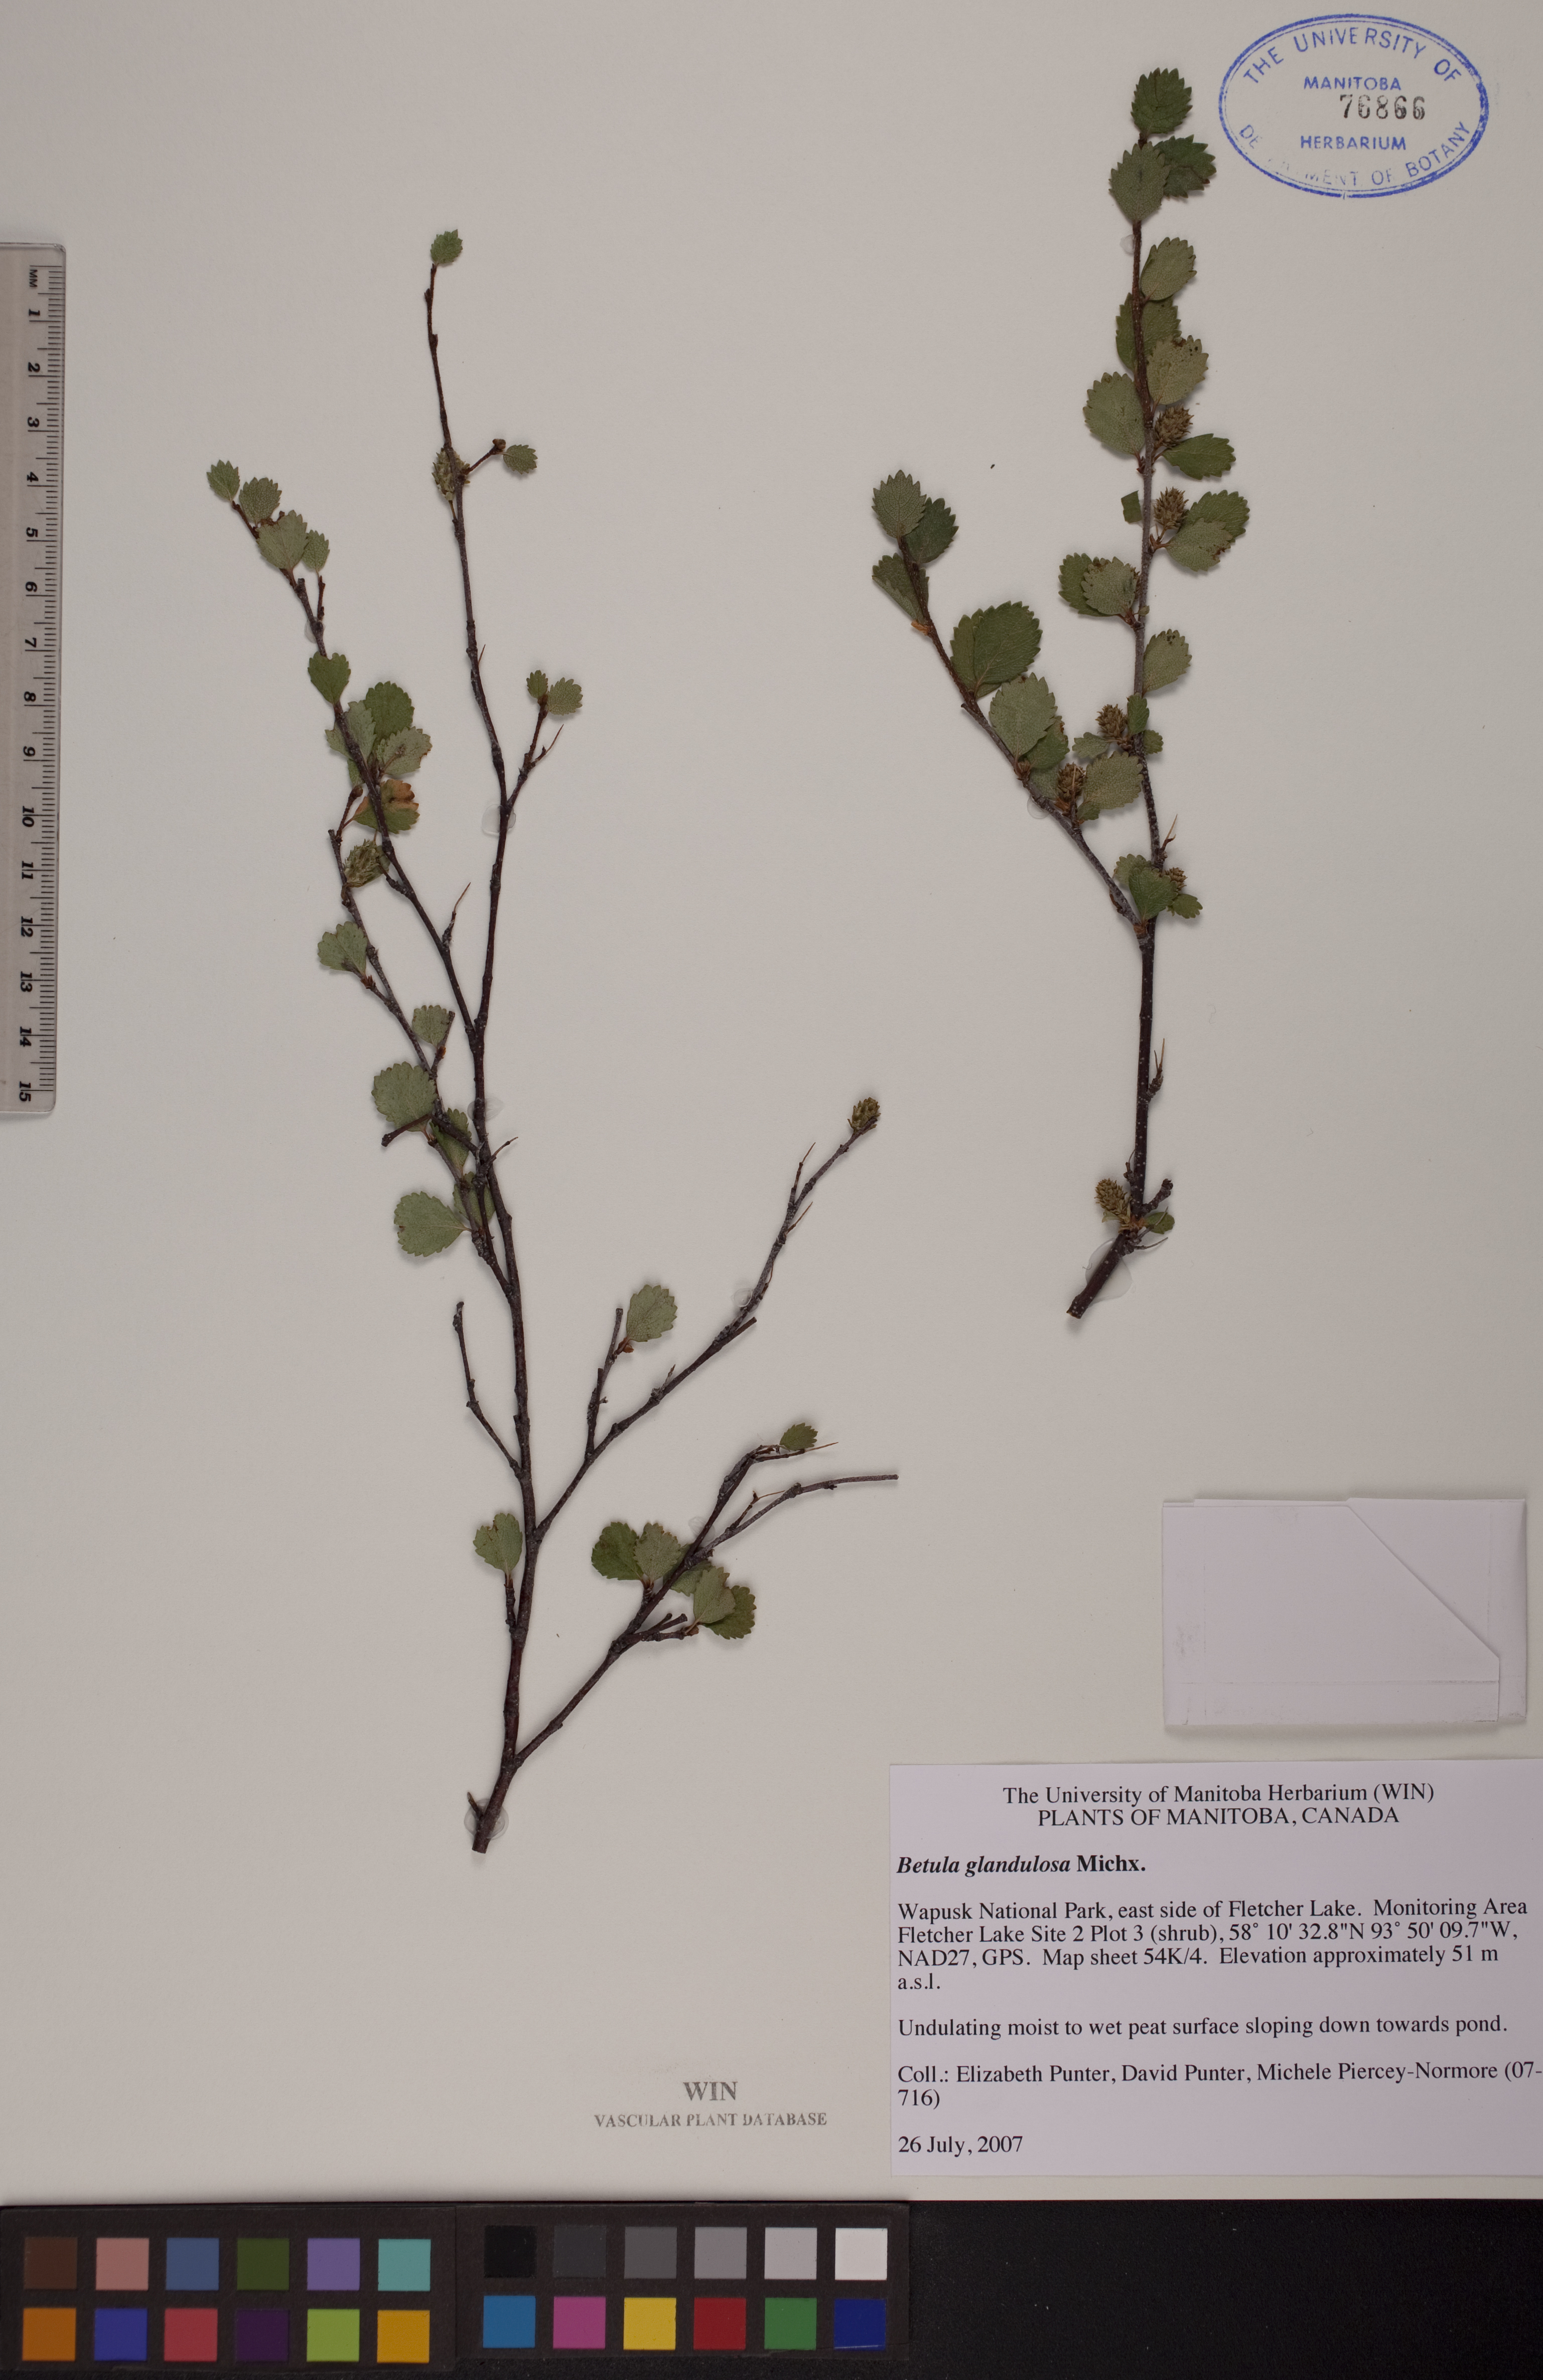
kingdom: Plantae
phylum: Tracheophyta
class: Magnoliopsida
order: Fagales
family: Betulaceae
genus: Betula
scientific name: Betula glandulosa
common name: Dwarf birch
